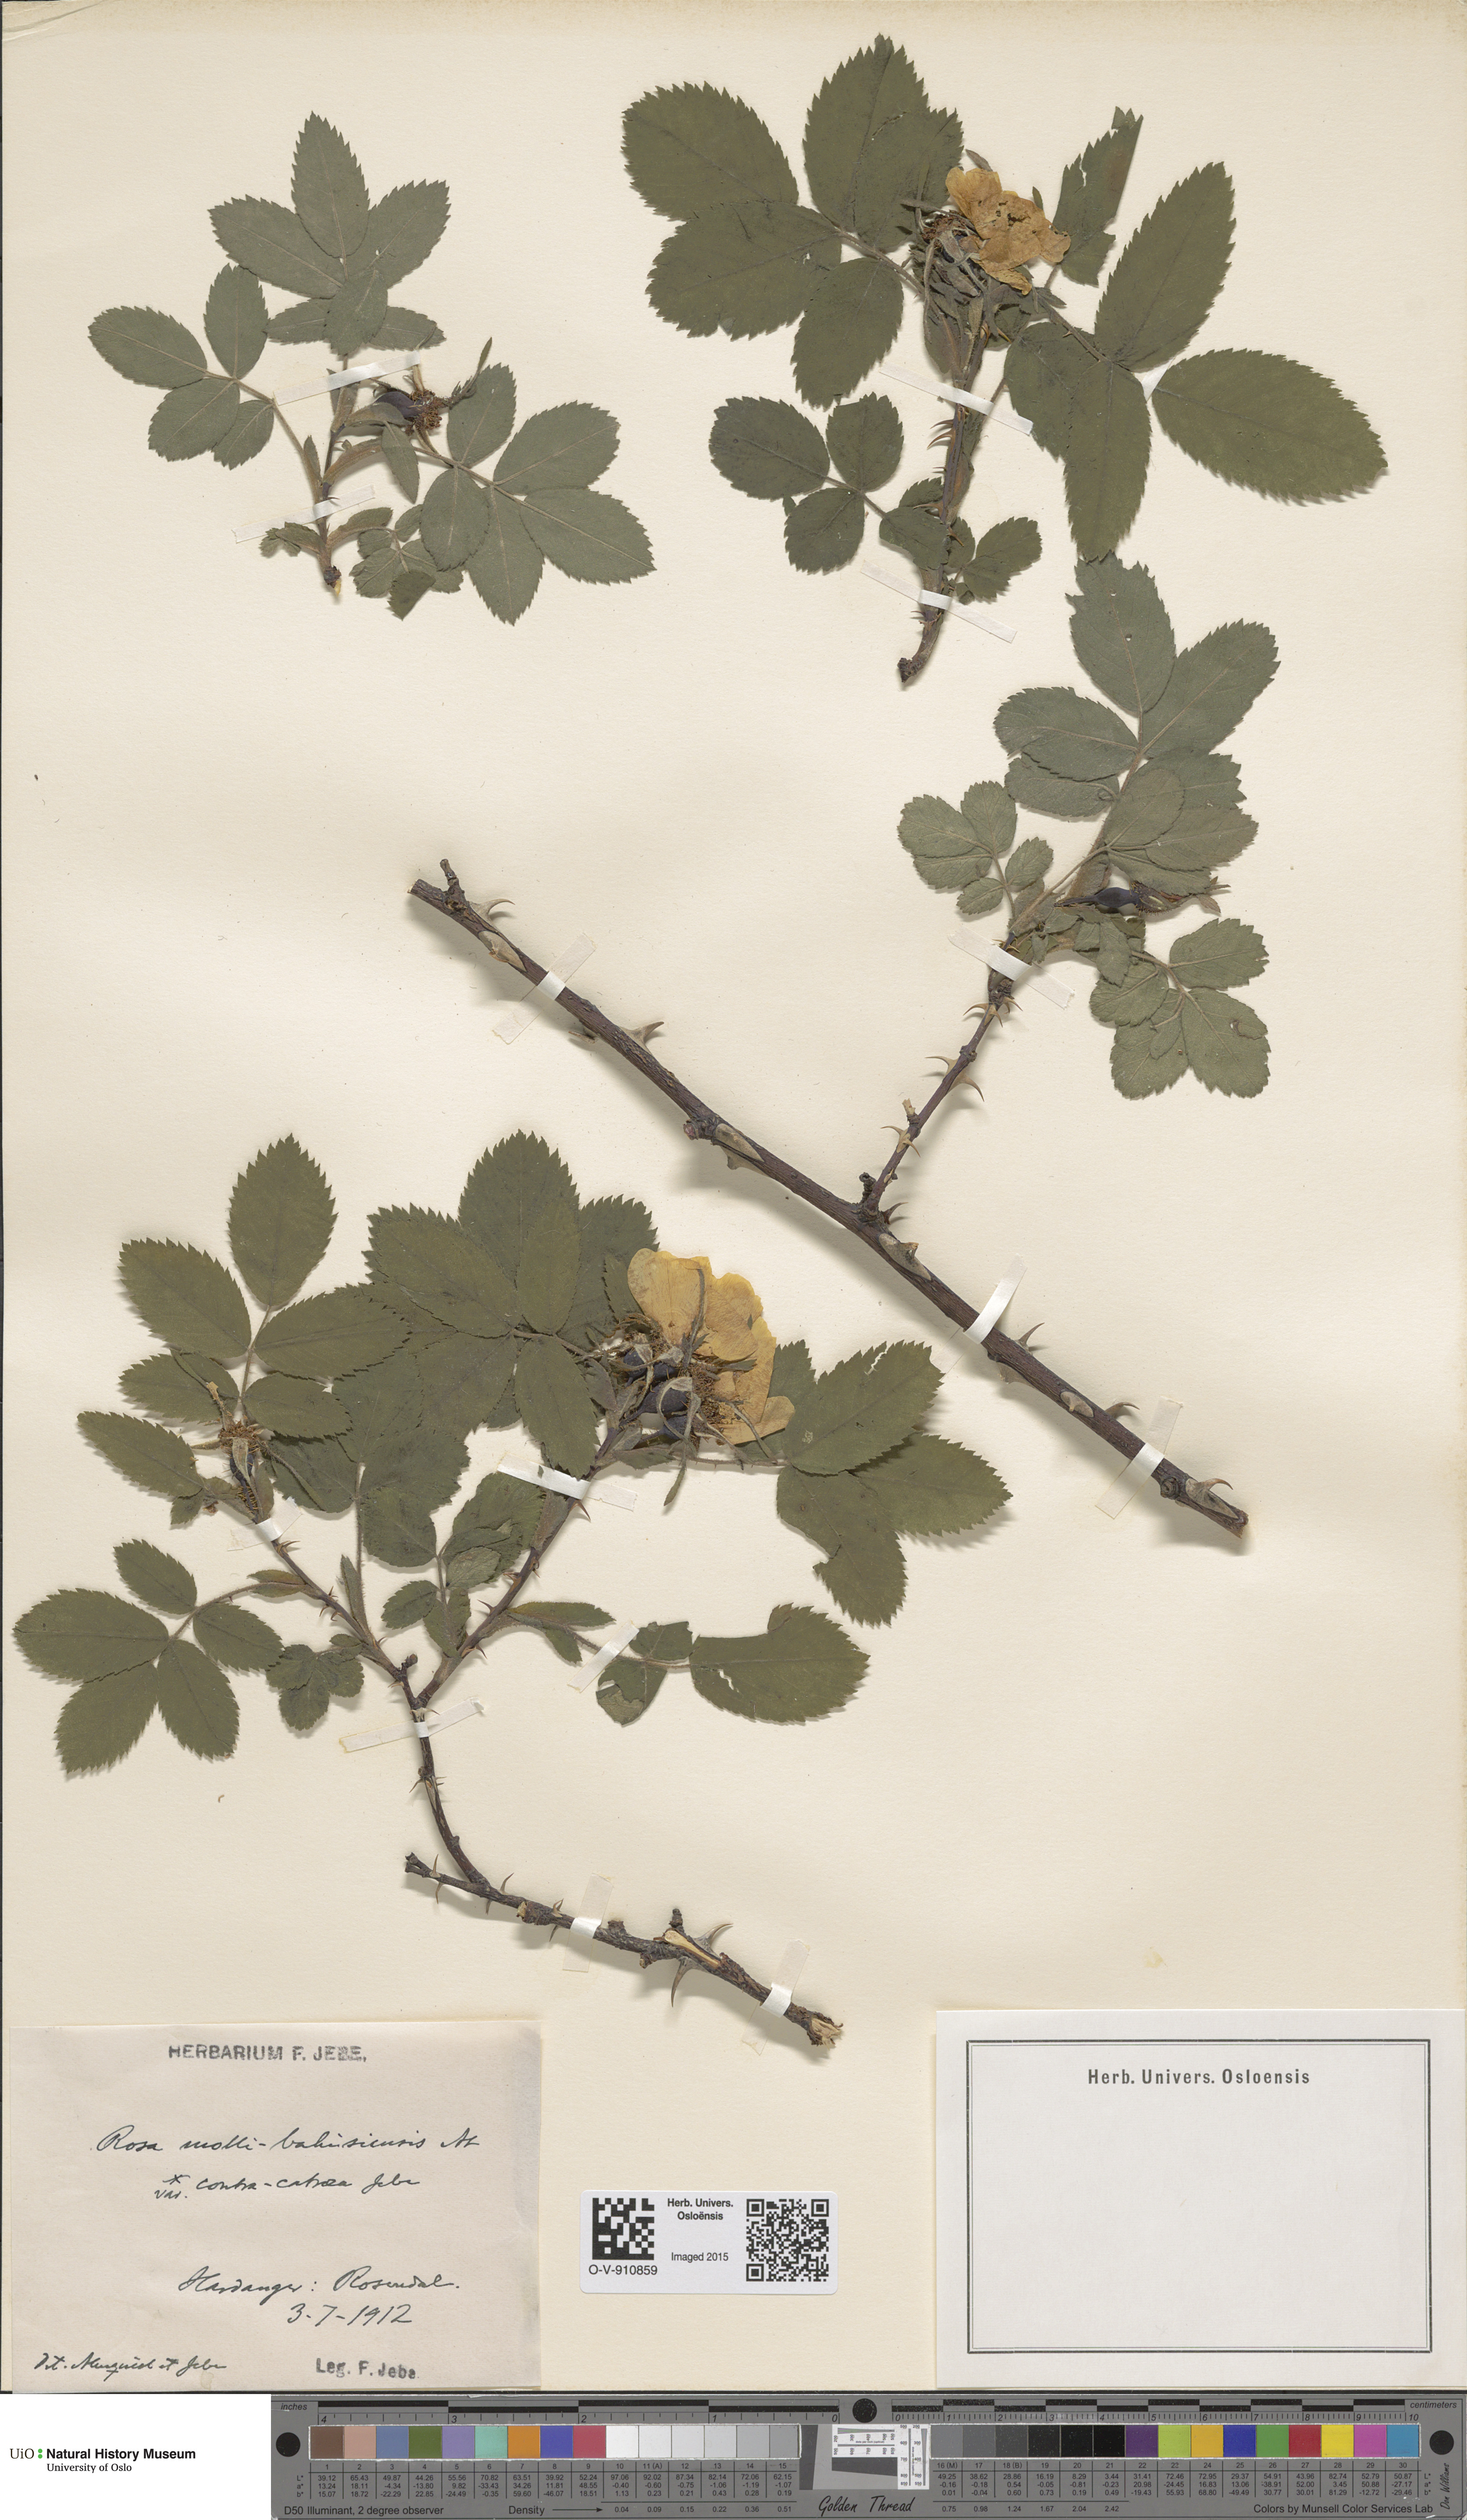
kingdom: Plantae
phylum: Tracheophyta
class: Magnoliopsida
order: Rosales
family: Rosaceae
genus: Rosa
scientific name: Rosa mollis
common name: Rose
